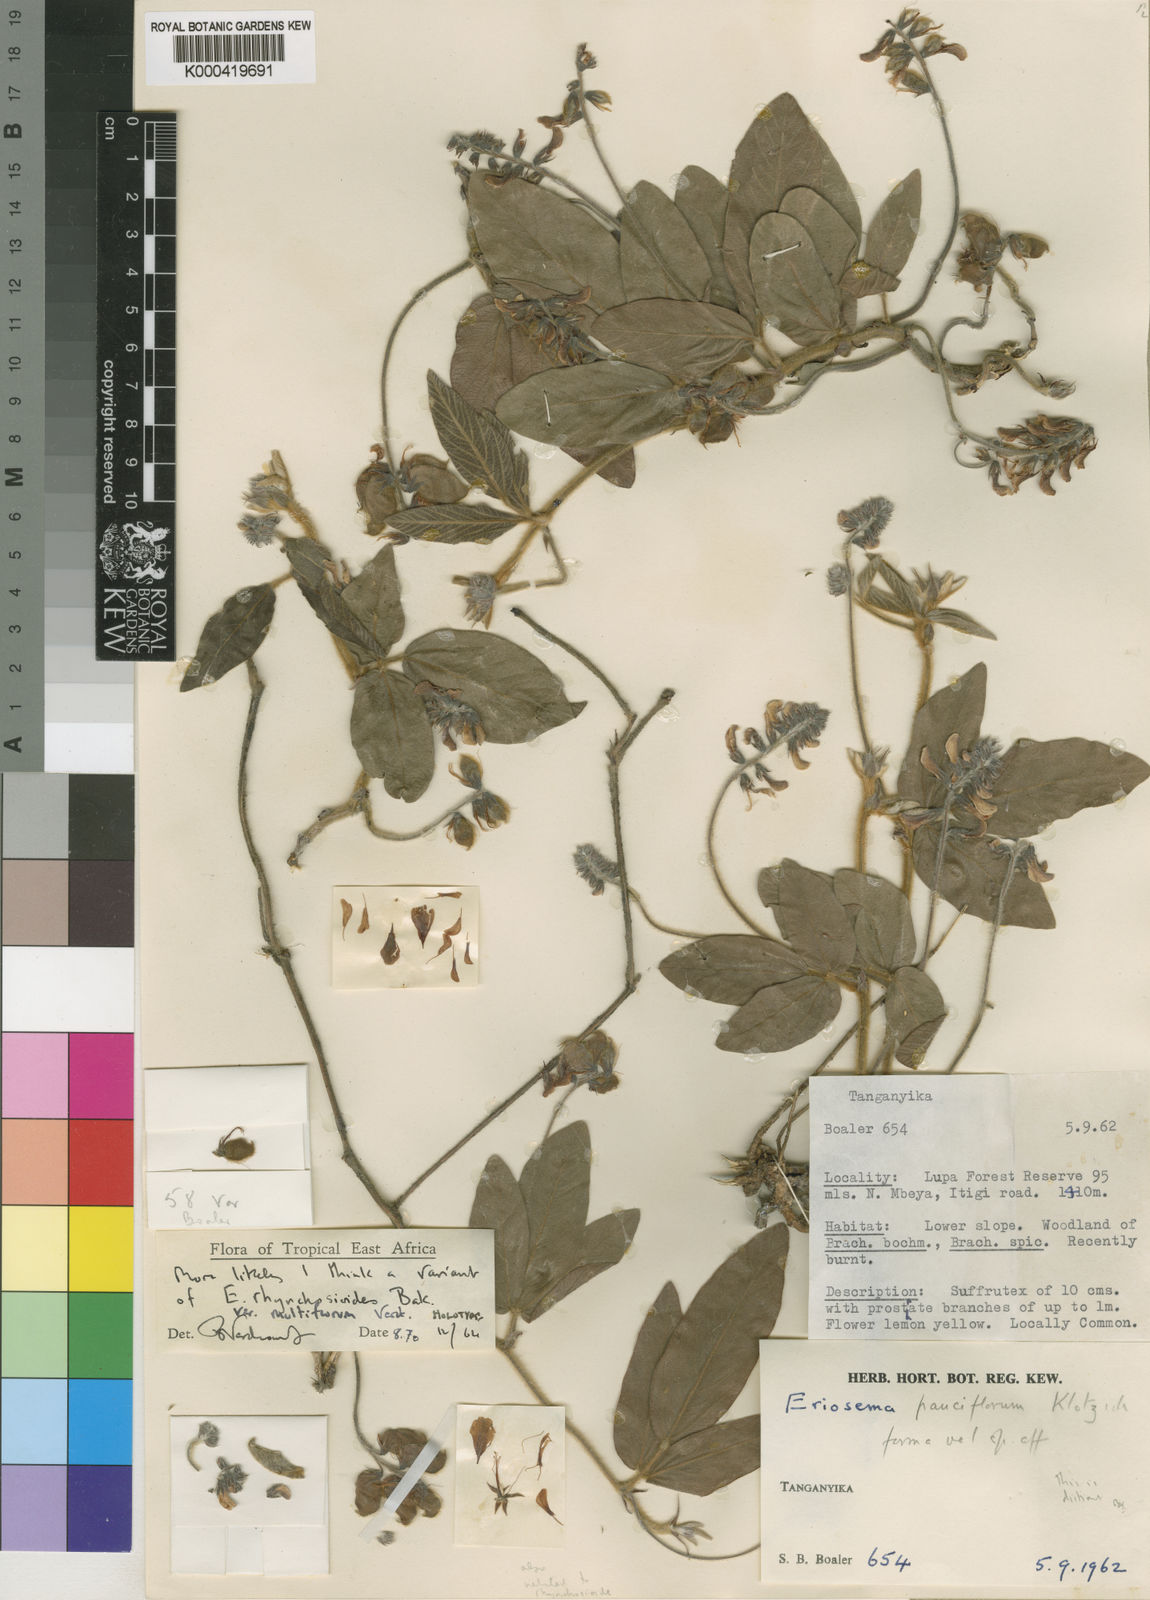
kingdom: Plantae
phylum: Tracheophyta
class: Magnoliopsida
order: Fabales
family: Fabaceae
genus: Eriosema
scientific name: Eriosema rhynchosioides
